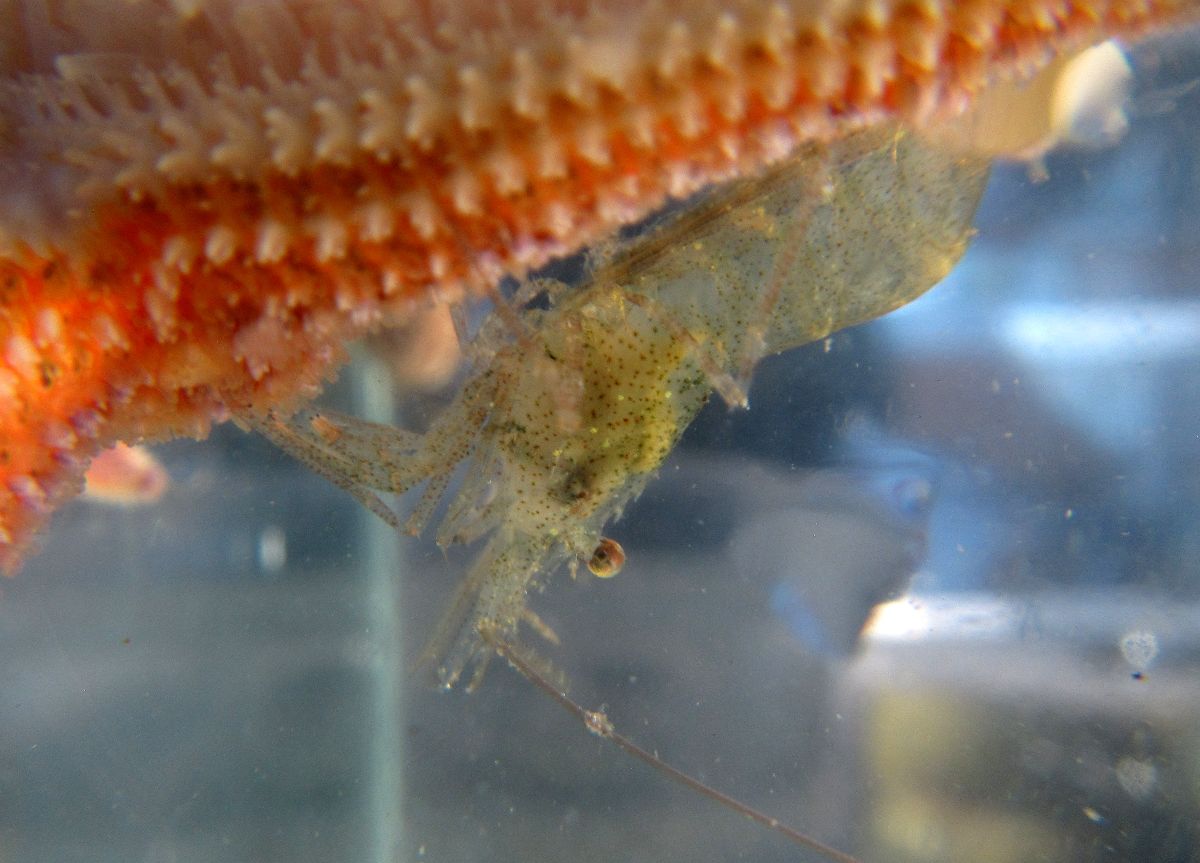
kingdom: Animalia
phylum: Arthropoda
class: Malacostraca
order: Decapoda
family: Pandalidae
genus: Pandalus
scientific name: Pandalus montagui
